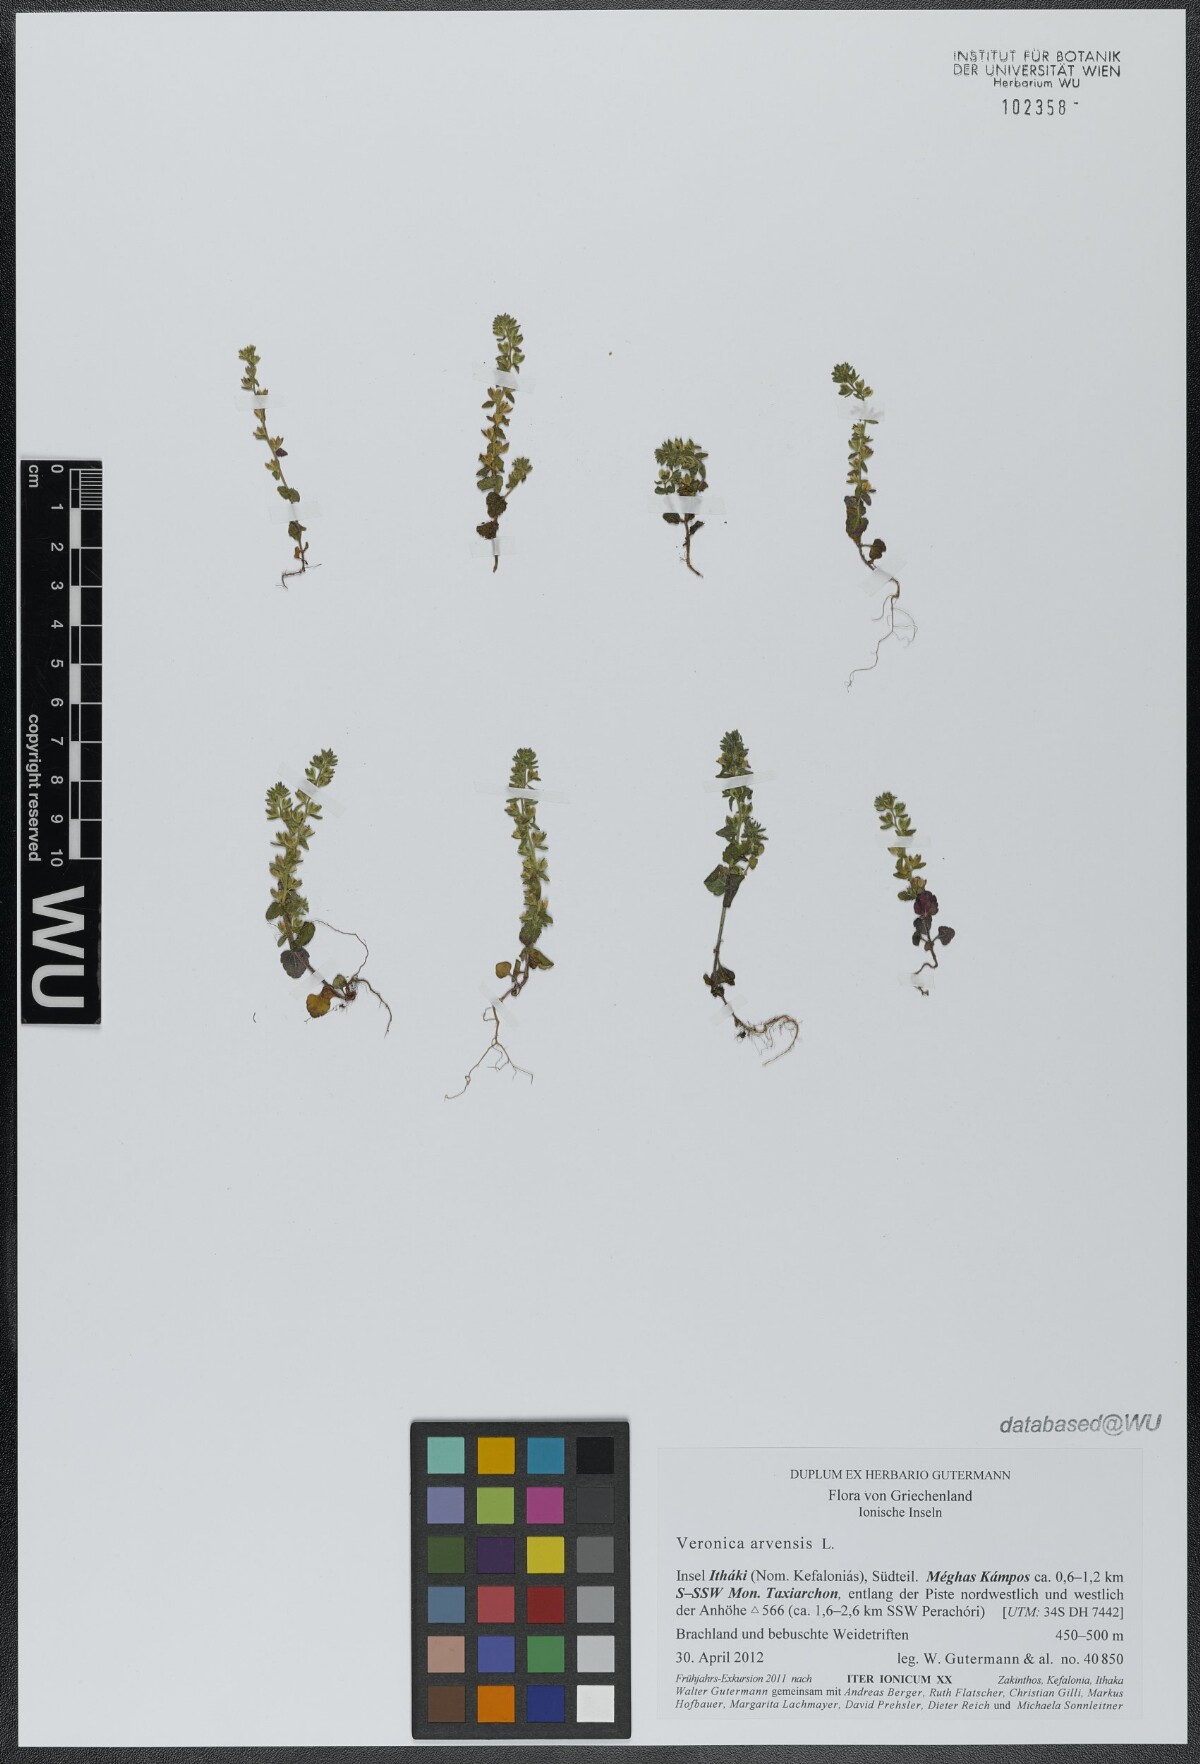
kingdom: Plantae
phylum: Tracheophyta
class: Magnoliopsida
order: Lamiales
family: Plantaginaceae
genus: Veronica
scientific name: Veronica arvensis
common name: Corn speedwell
